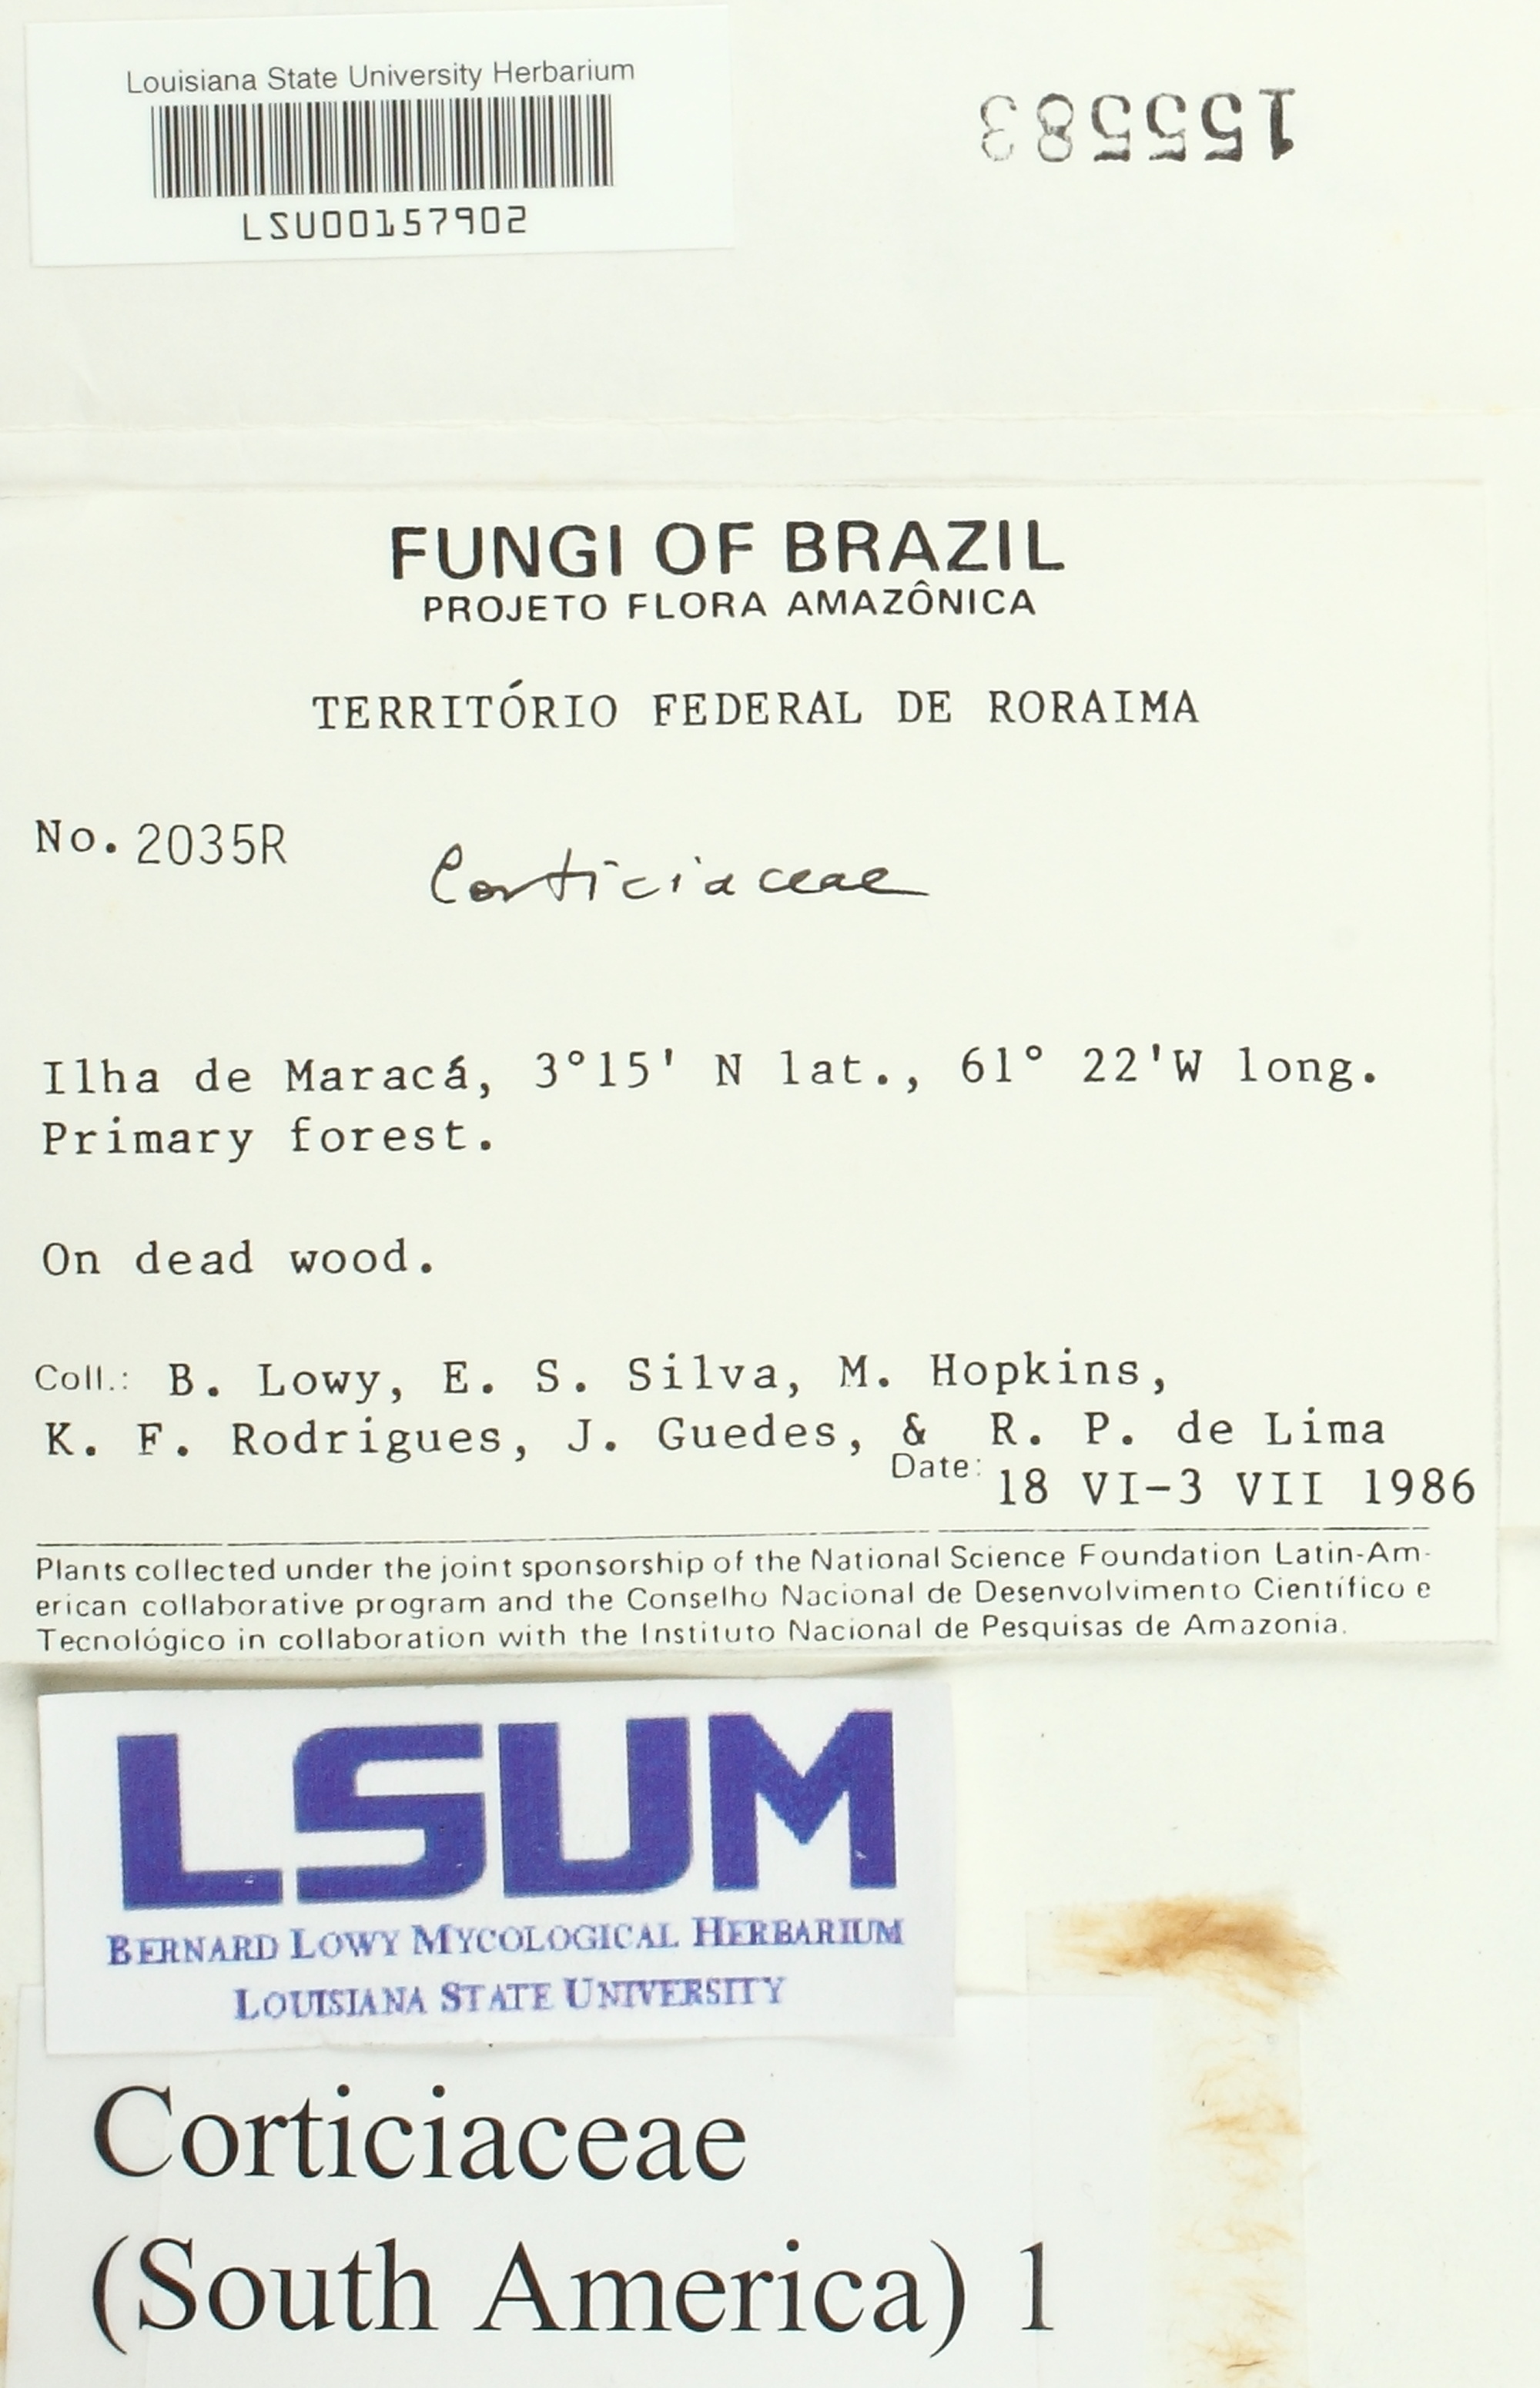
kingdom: Fungi
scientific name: Fungi
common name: Fungi
